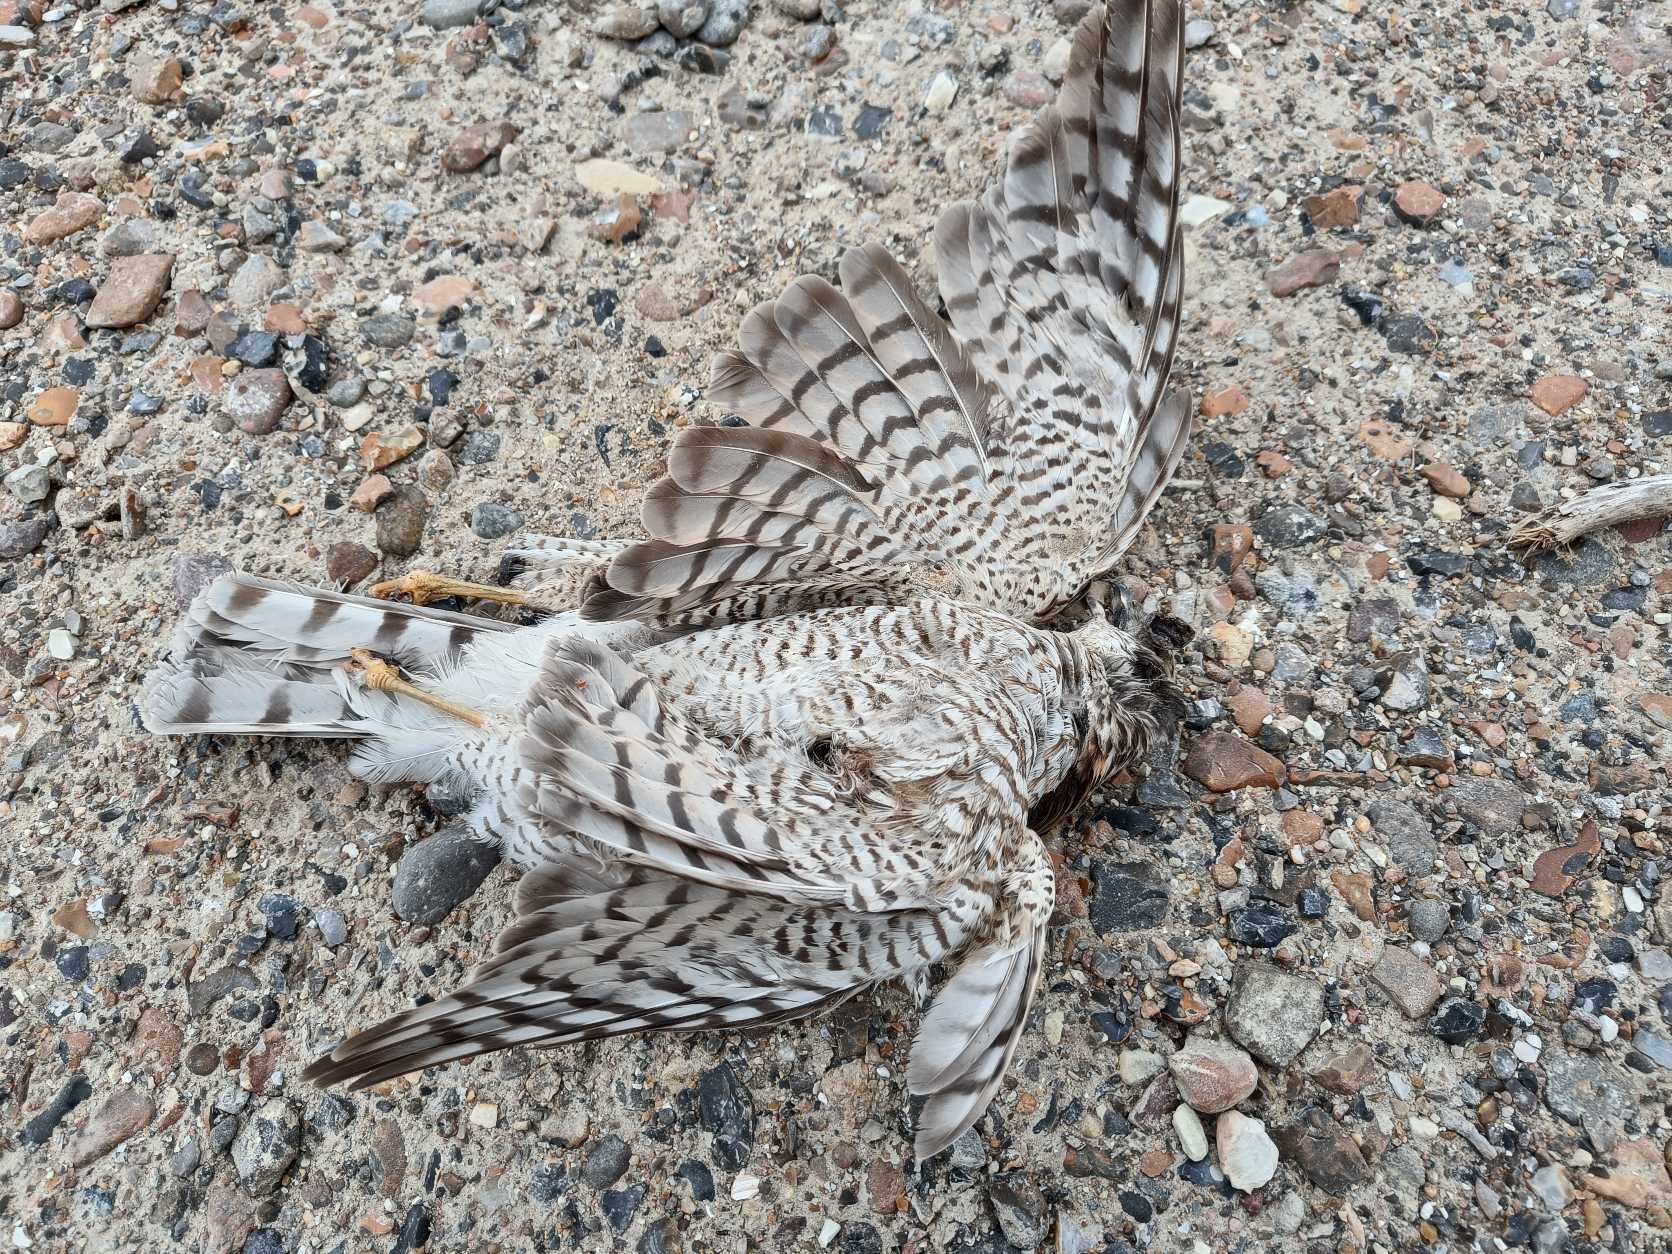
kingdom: Animalia
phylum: Chordata
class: Aves
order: Accipitriformes
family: Accipitridae
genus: Accipiter
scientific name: Accipiter nisus
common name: Spurvehøg
